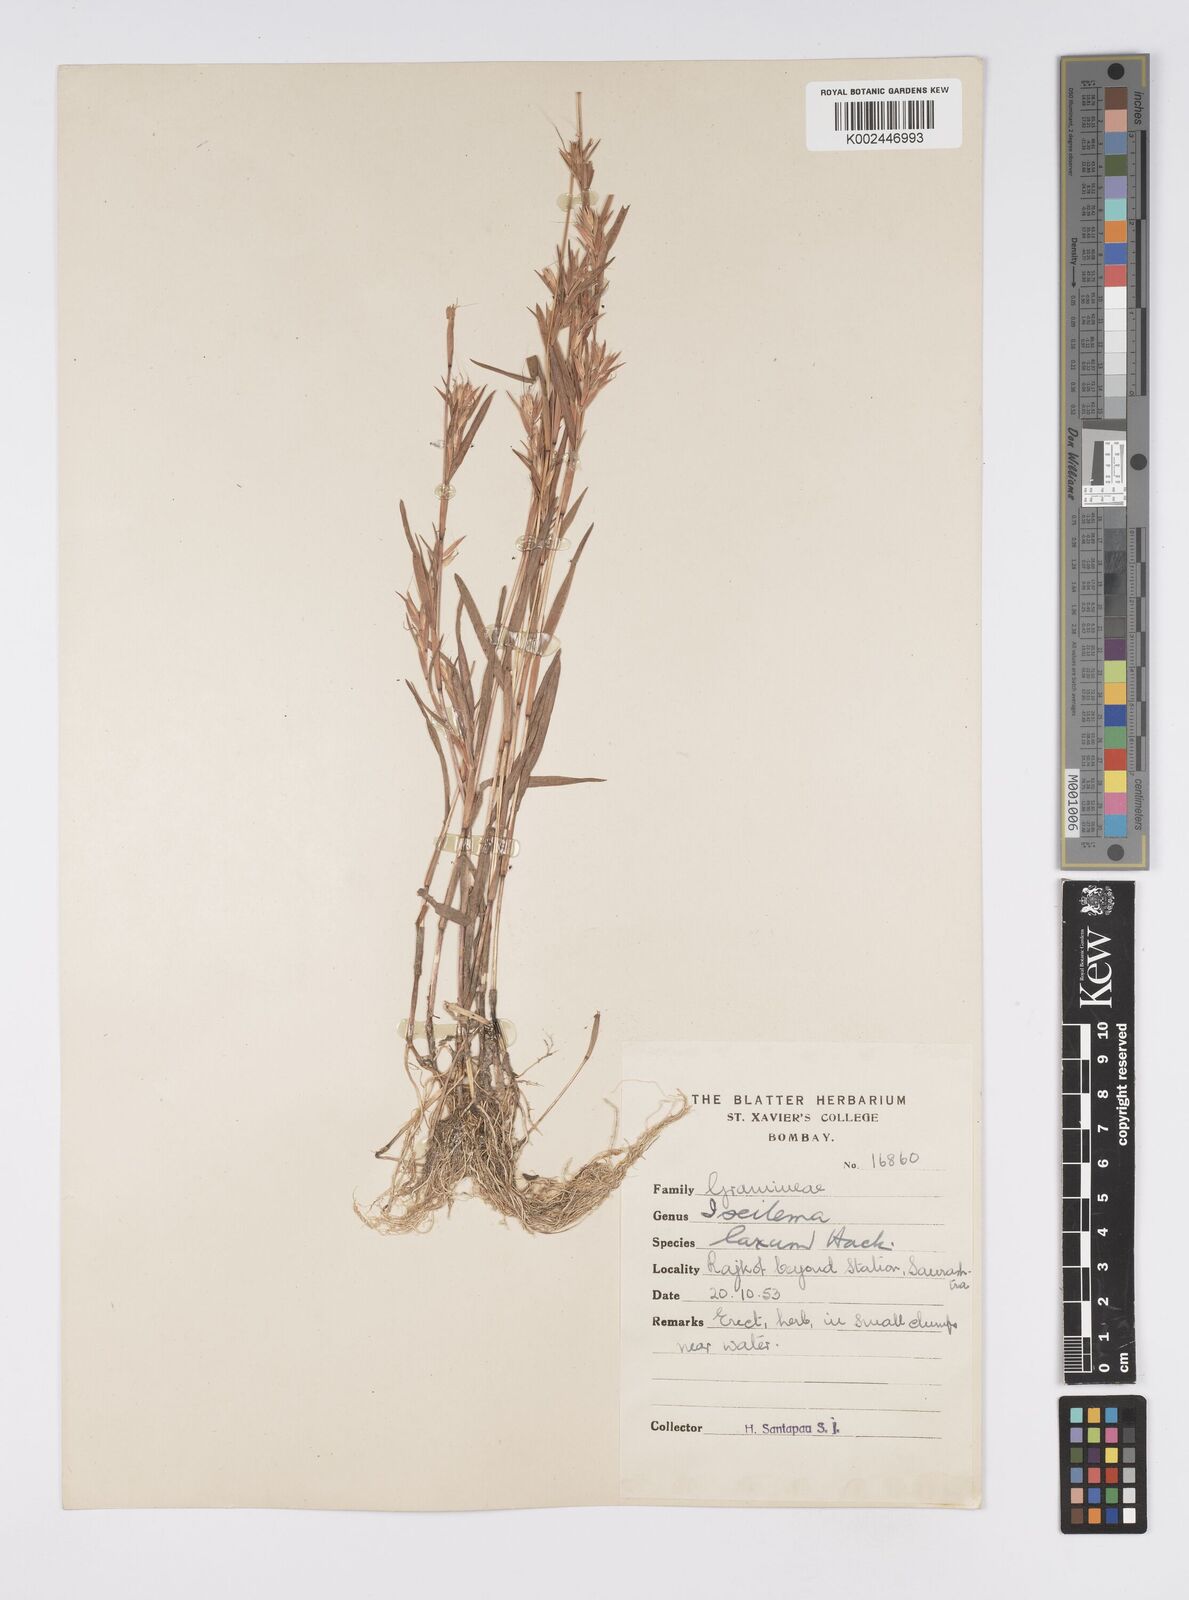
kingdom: Plantae
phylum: Tracheophyta
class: Liliopsida
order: Poales
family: Poaceae
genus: Iseilema
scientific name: Iseilema prostratum
